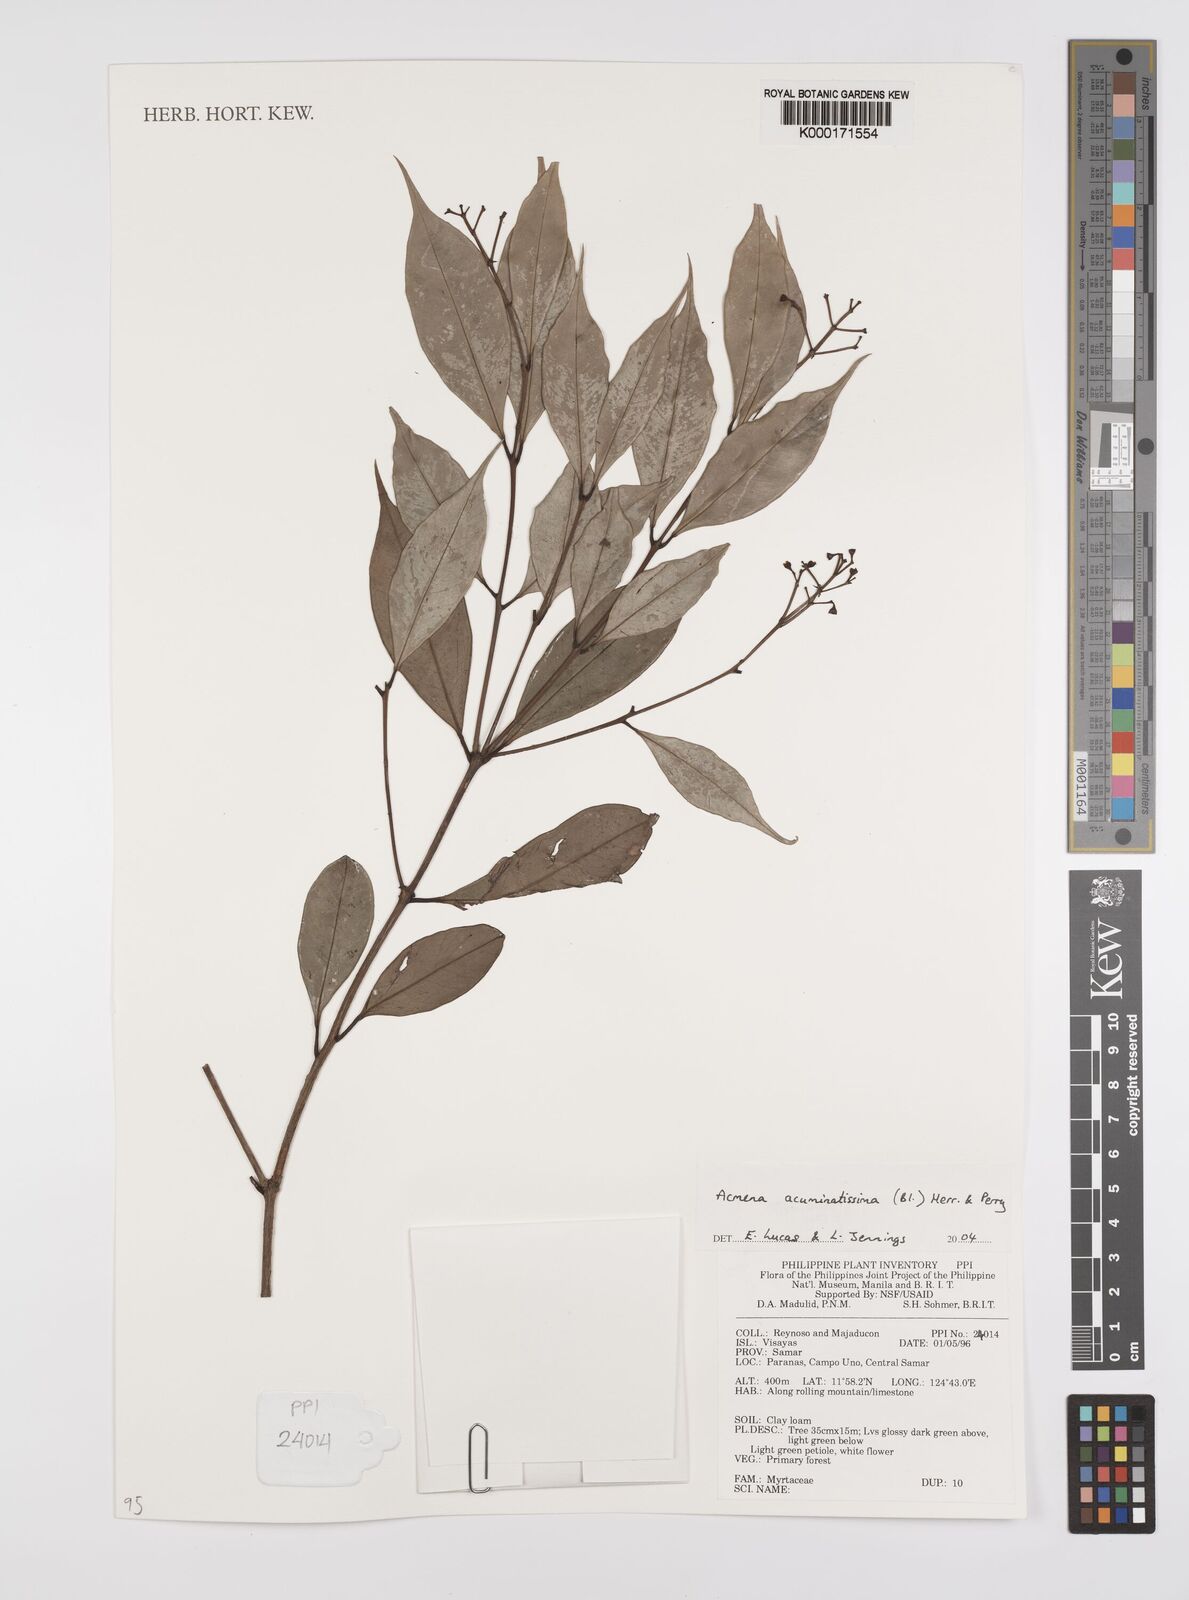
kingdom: Plantae
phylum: Tracheophyta
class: Magnoliopsida
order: Myrtales
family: Myrtaceae
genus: Syzygium
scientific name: Syzygium acuminatissimum
